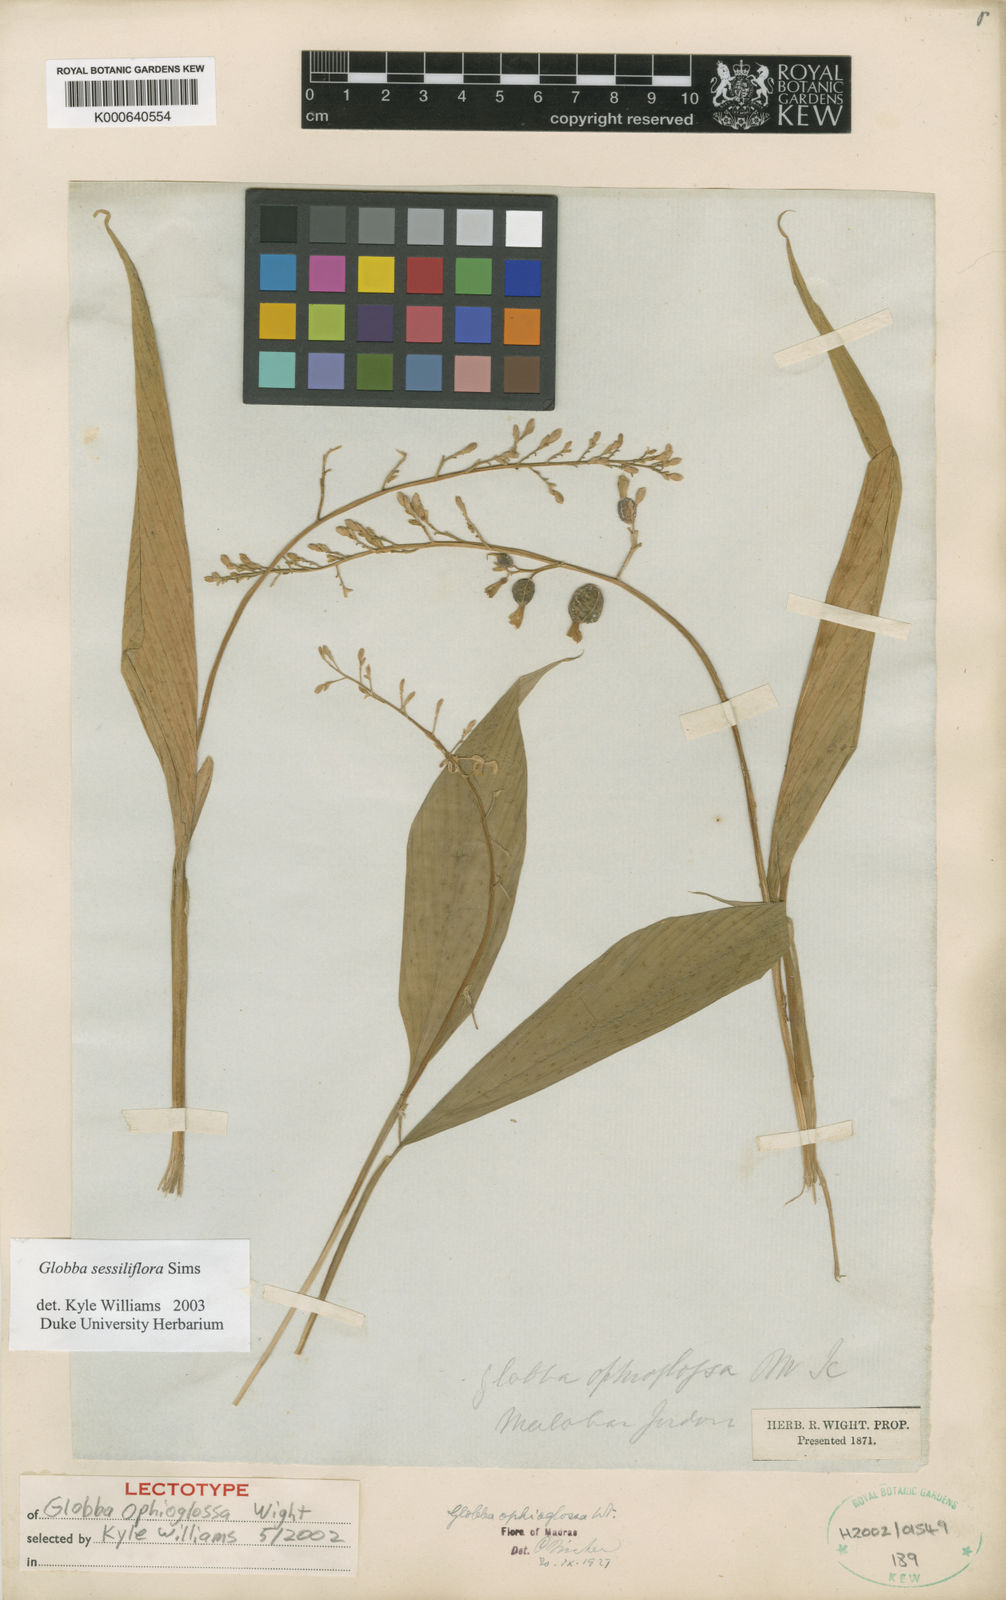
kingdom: Plantae
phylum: Tracheophyta
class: Liliopsida
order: Zingiberales
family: Zingiberaceae
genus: Globba
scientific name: Globba sessiliflora
